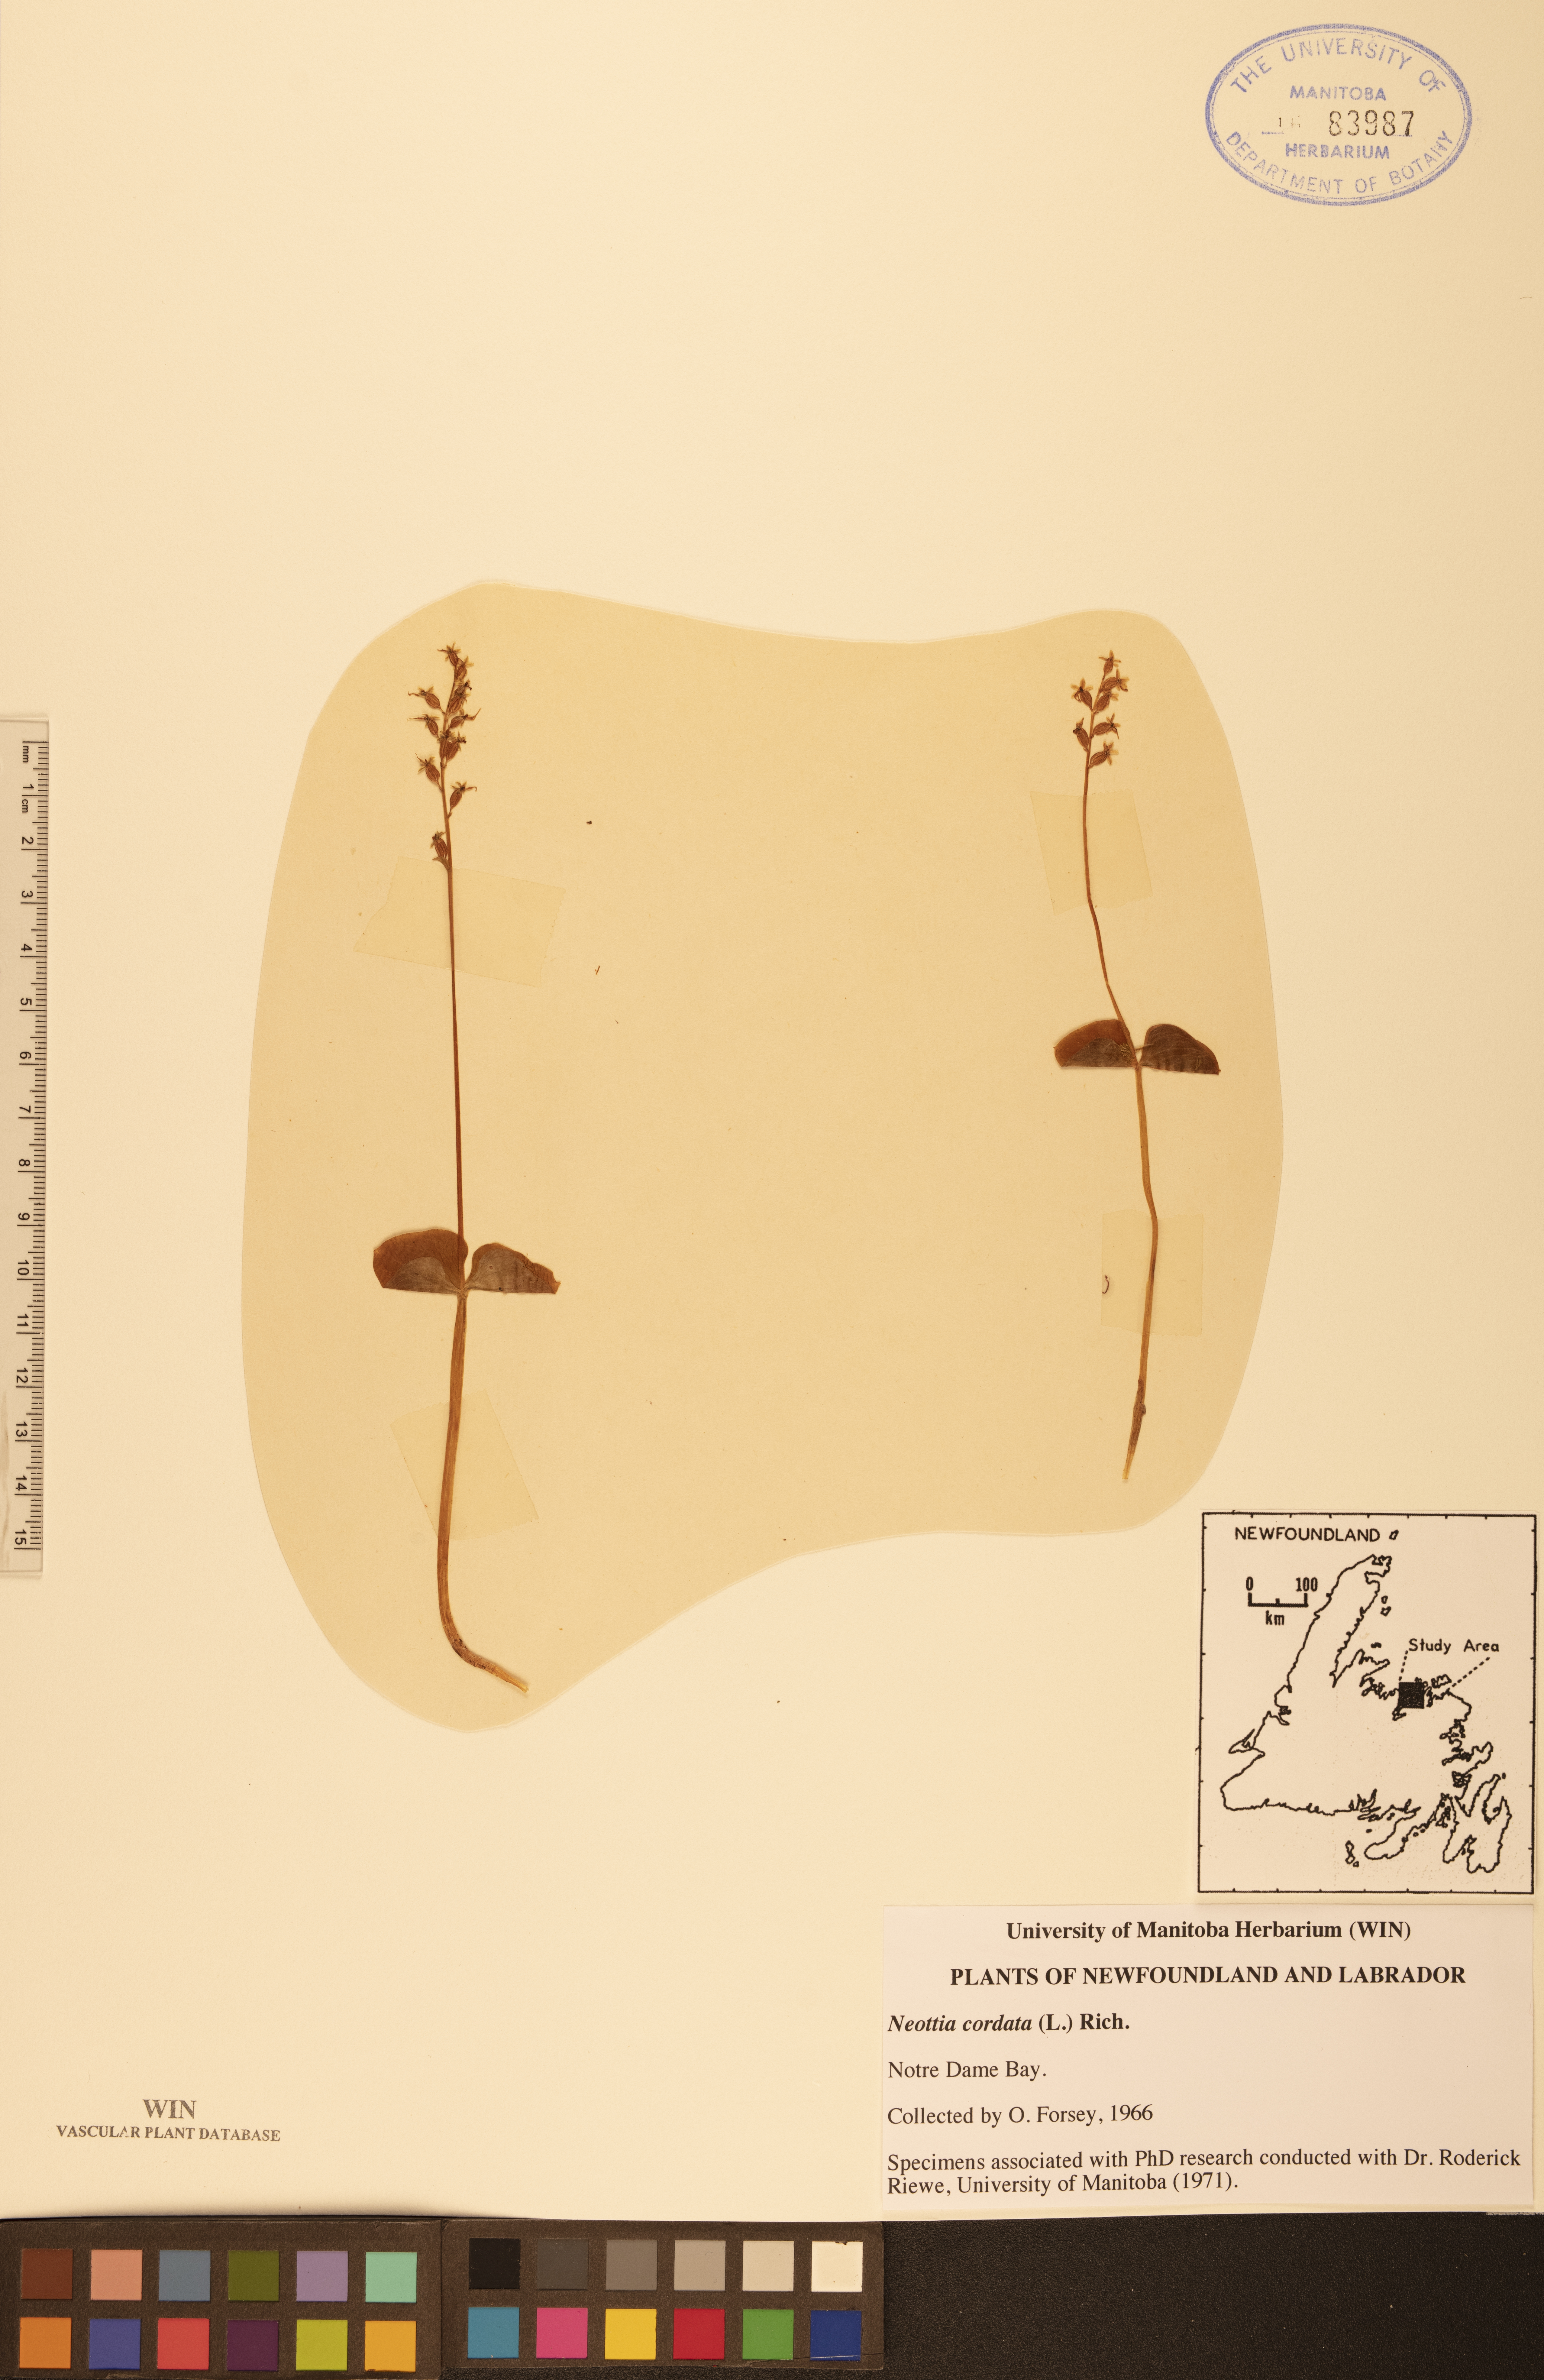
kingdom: Plantae
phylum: Tracheophyta
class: Liliopsida
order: Asparagales
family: Orchidaceae
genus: Neottia
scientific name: Neottia cordata
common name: Lesser twayblade
